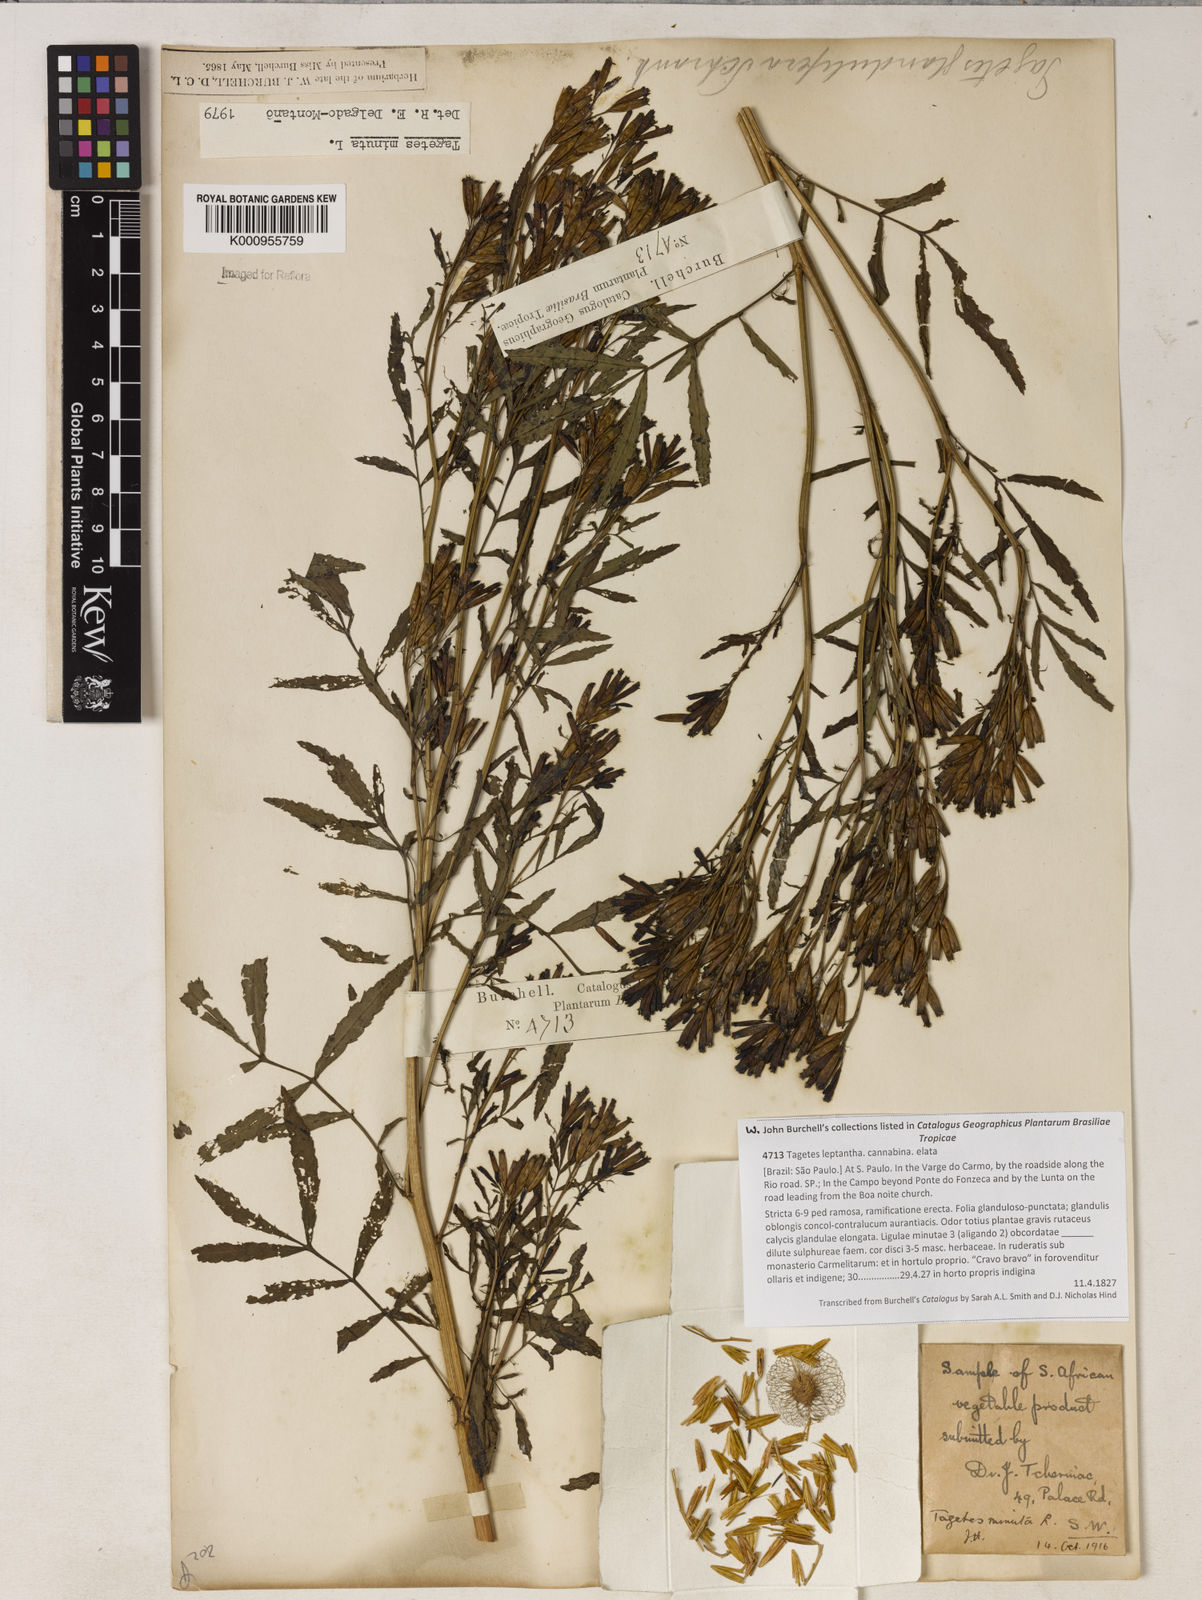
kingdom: Plantae
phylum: Tracheophyta
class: Magnoliopsida
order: Asterales
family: Asteraceae
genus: Tagetes
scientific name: Tagetes minuta
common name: Muster john henry
